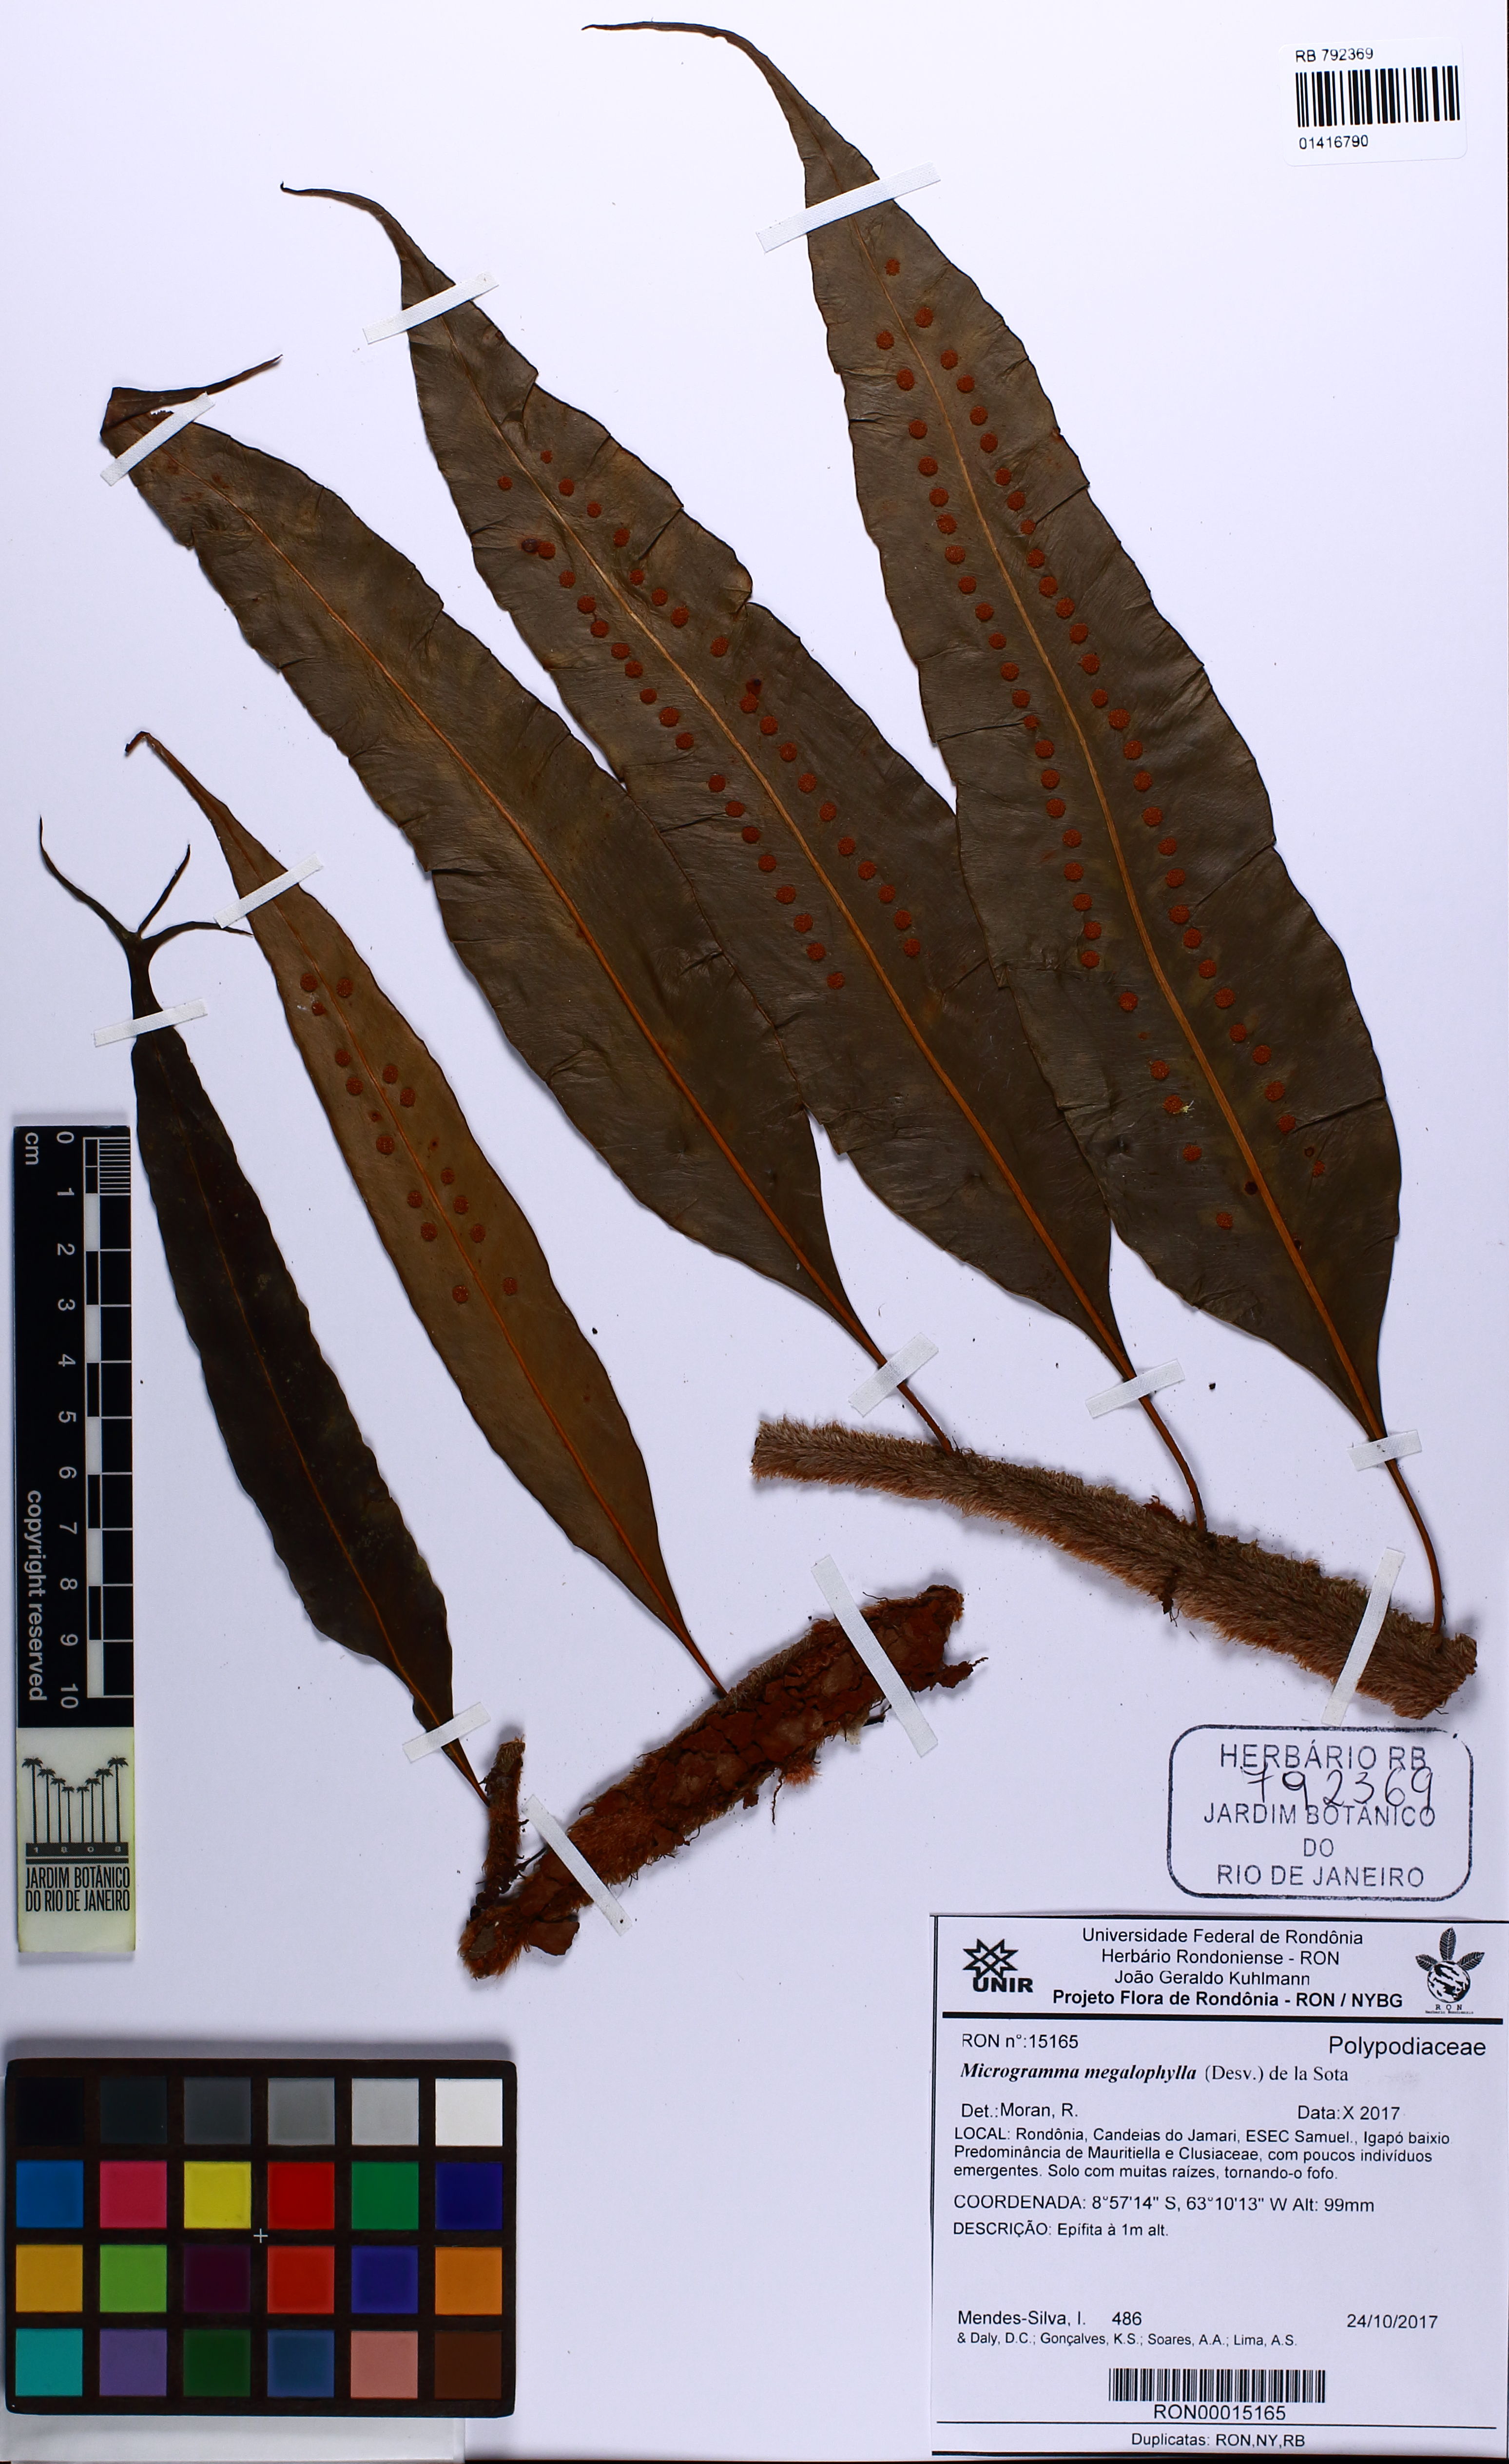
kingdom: Plantae
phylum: Tracheophyta
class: Polypodiopsida
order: Polypodiales
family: Polypodiaceae
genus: Microgramma
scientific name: Microgramma megalophylla
